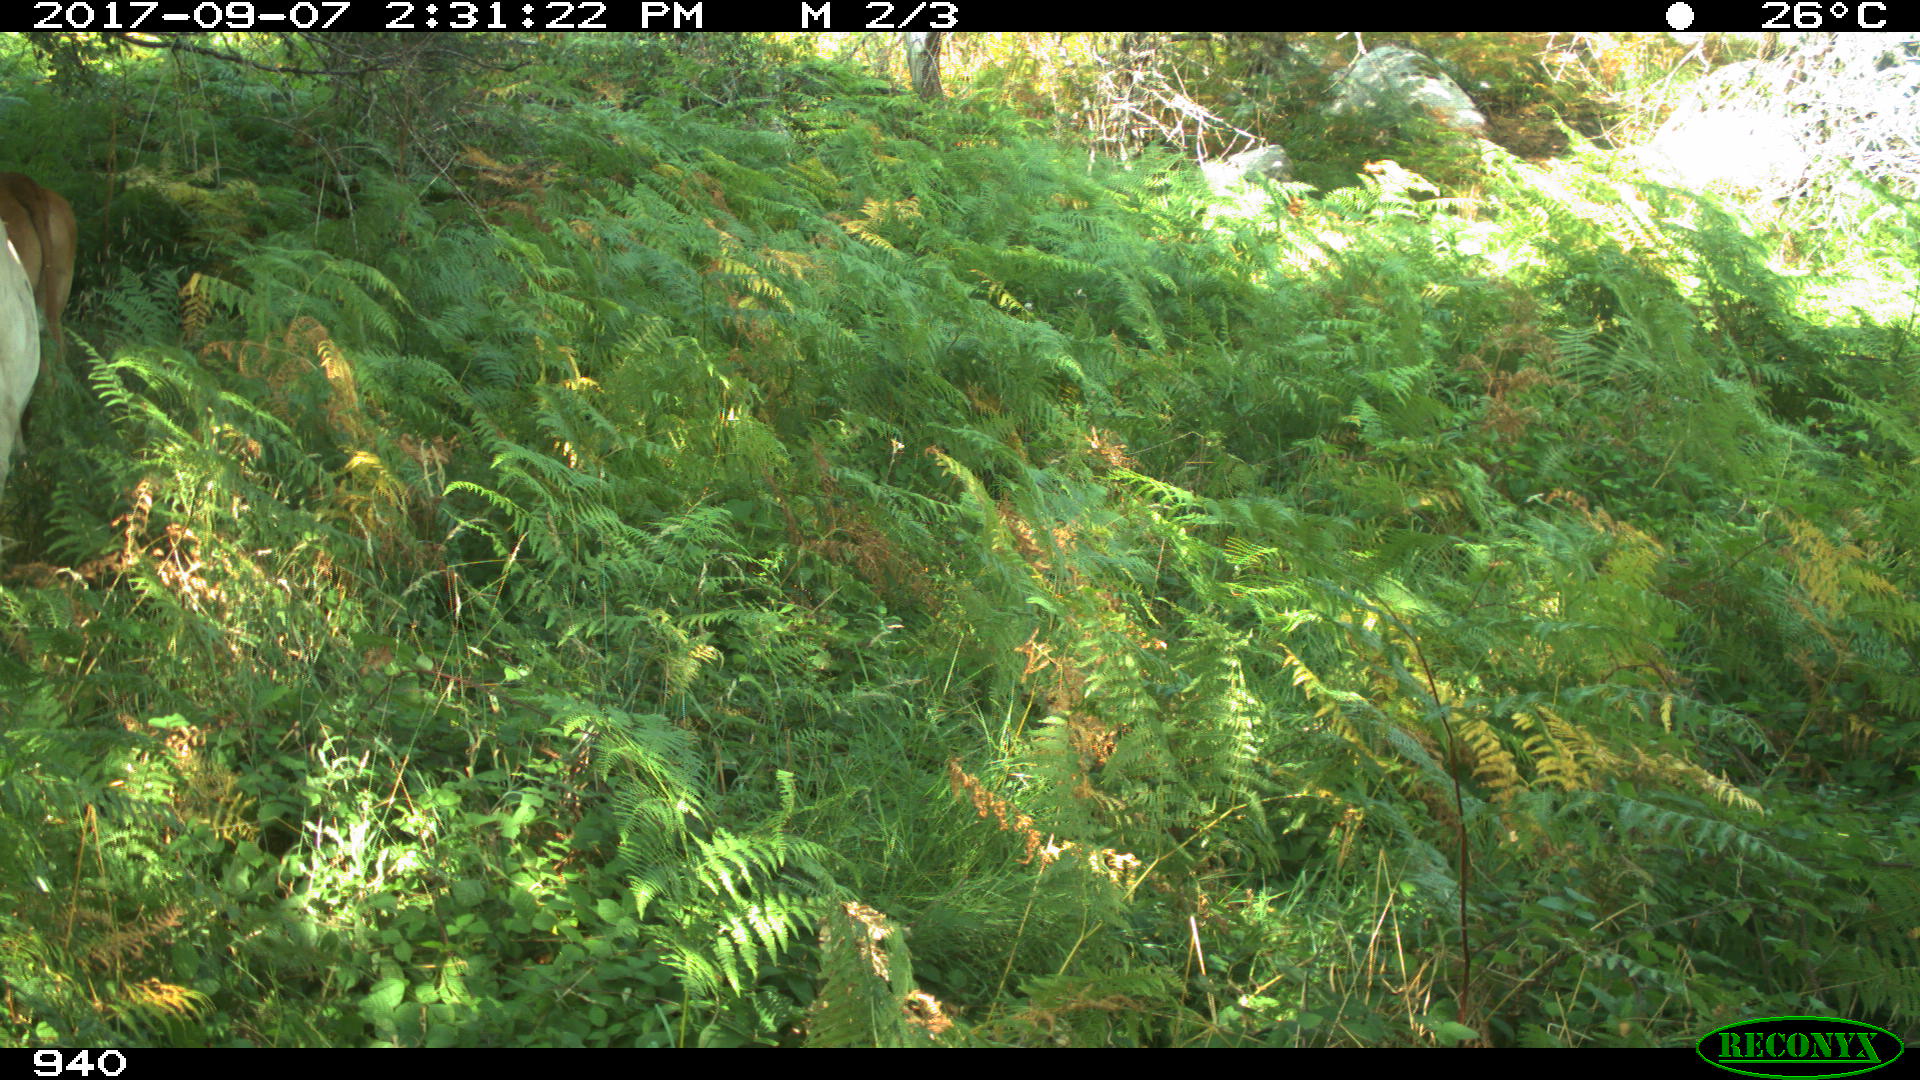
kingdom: Animalia
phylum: Chordata
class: Mammalia
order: Artiodactyla
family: Bovidae
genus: Bos
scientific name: Bos taurus
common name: Domesticated cattle
